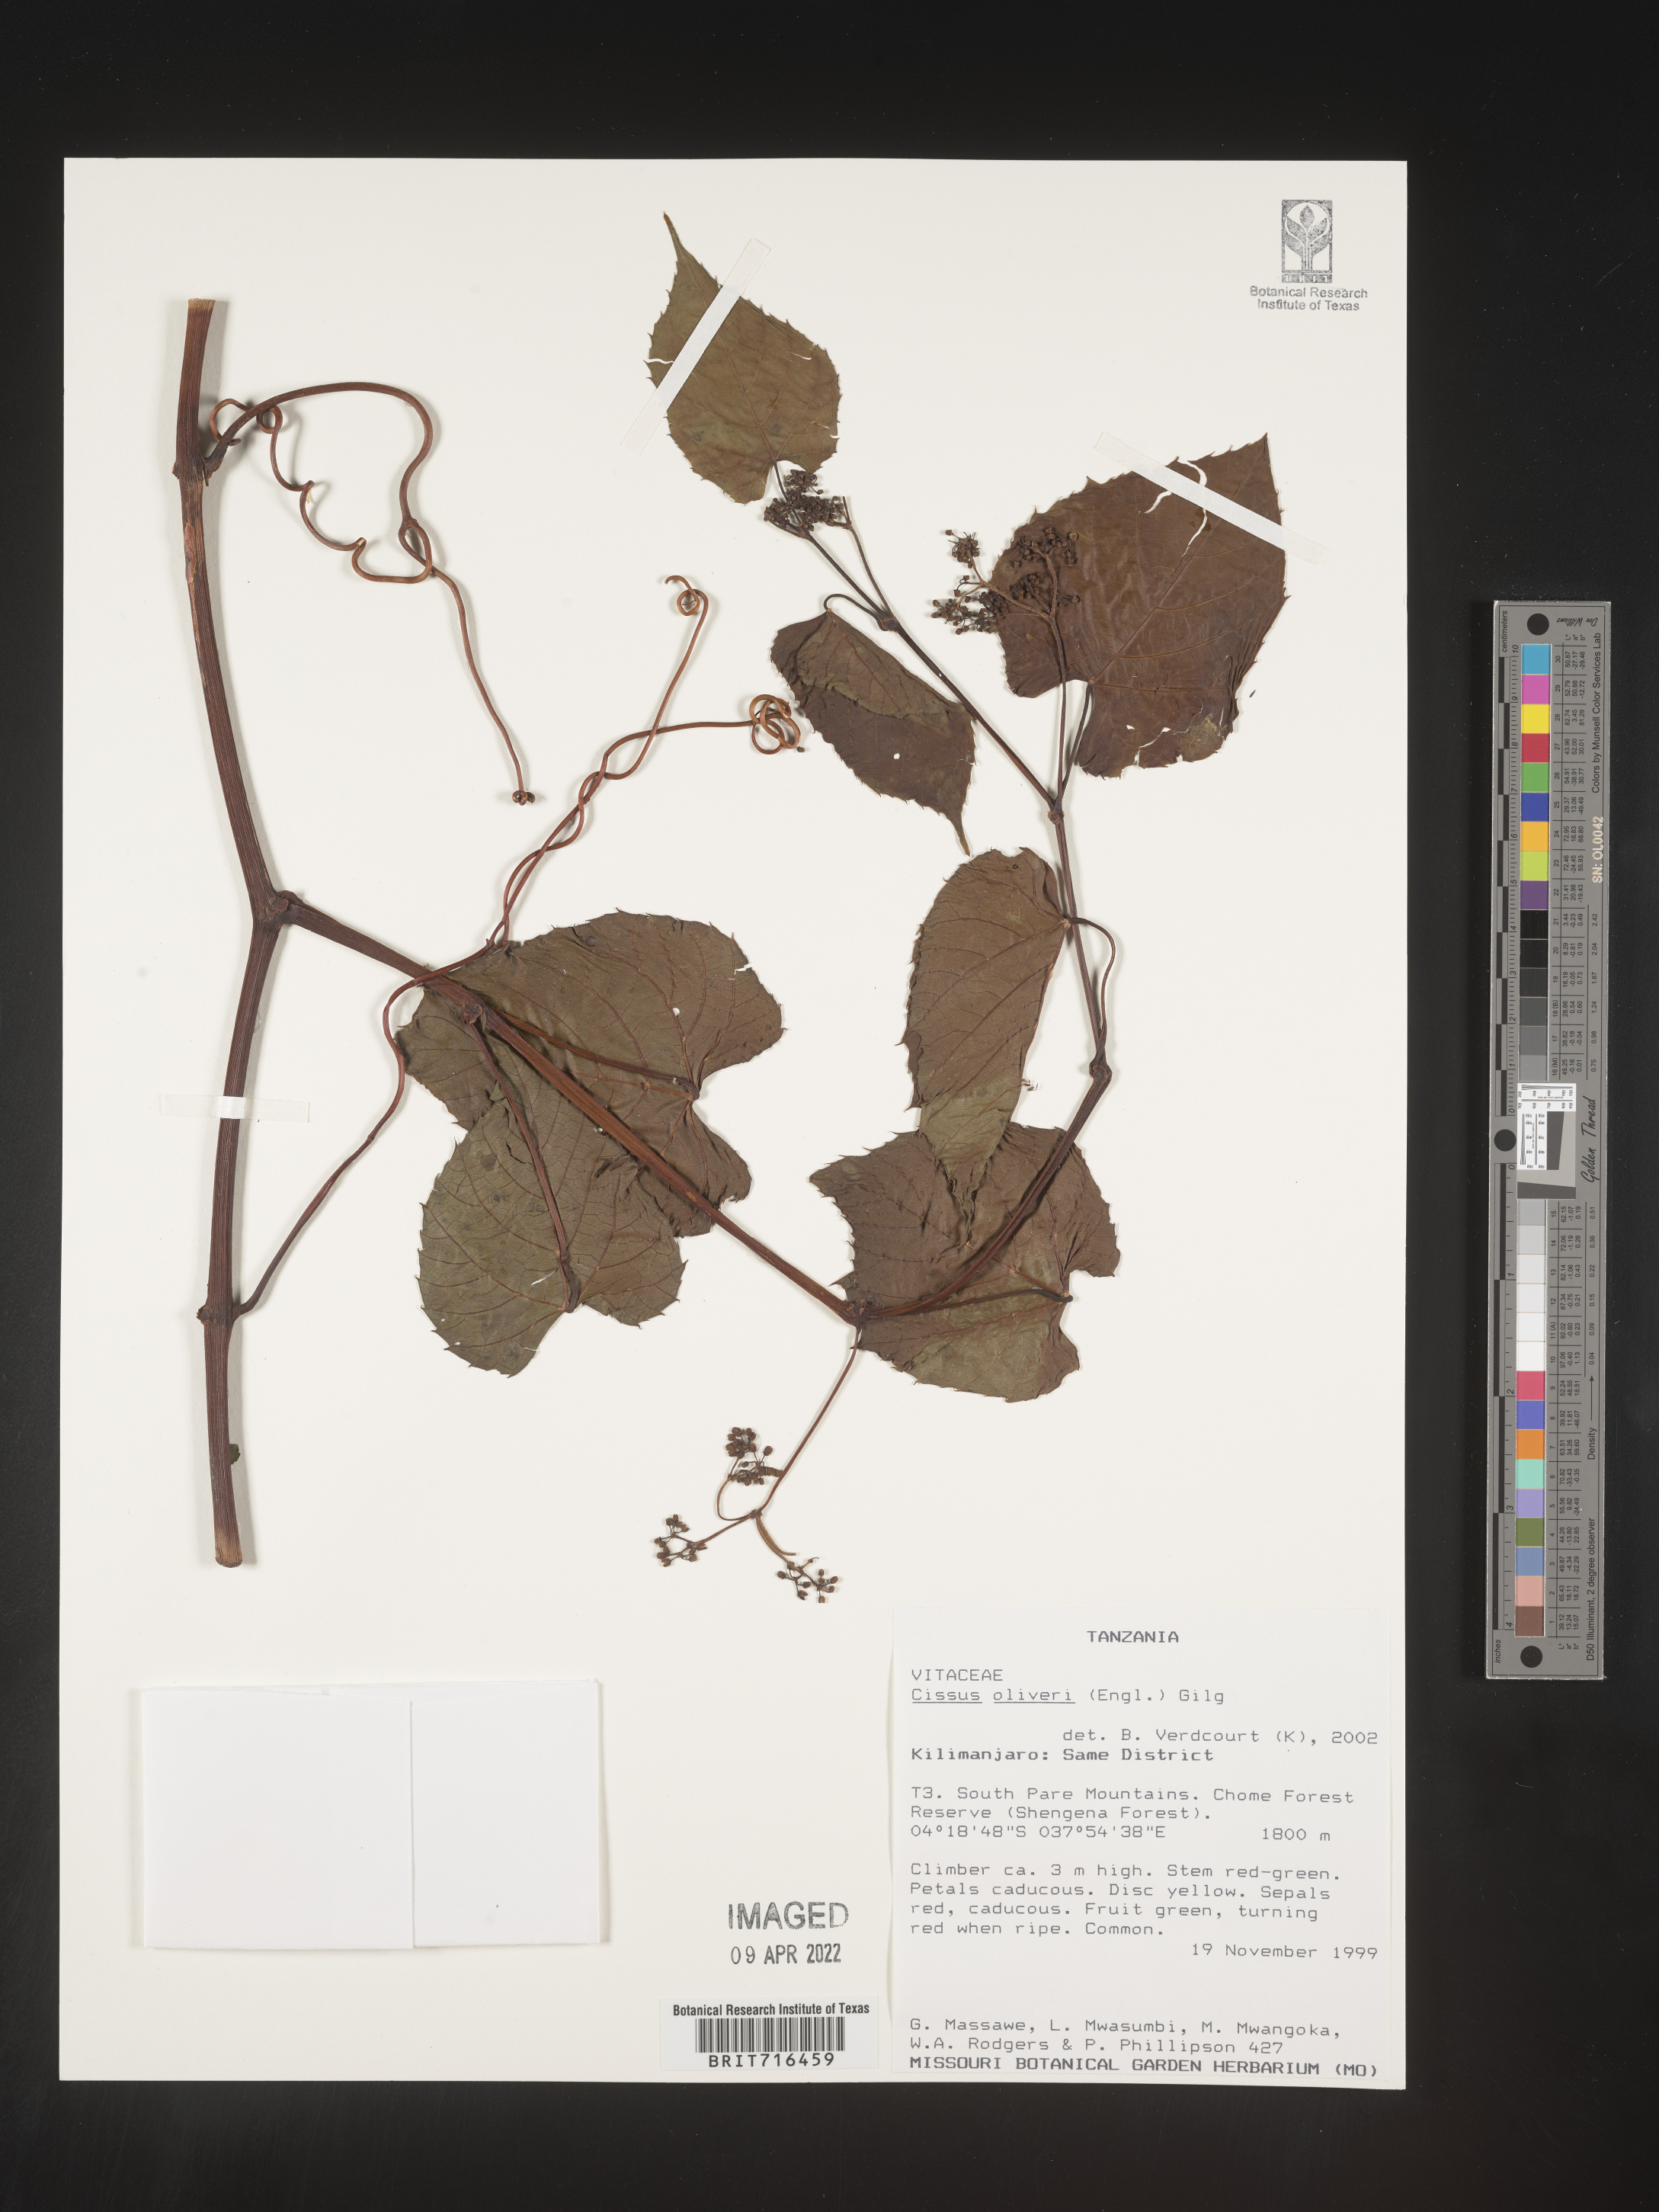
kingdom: Plantae
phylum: Tracheophyta
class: Magnoliopsida
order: Vitales
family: Vitaceae
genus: Cissus
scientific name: Cissus
